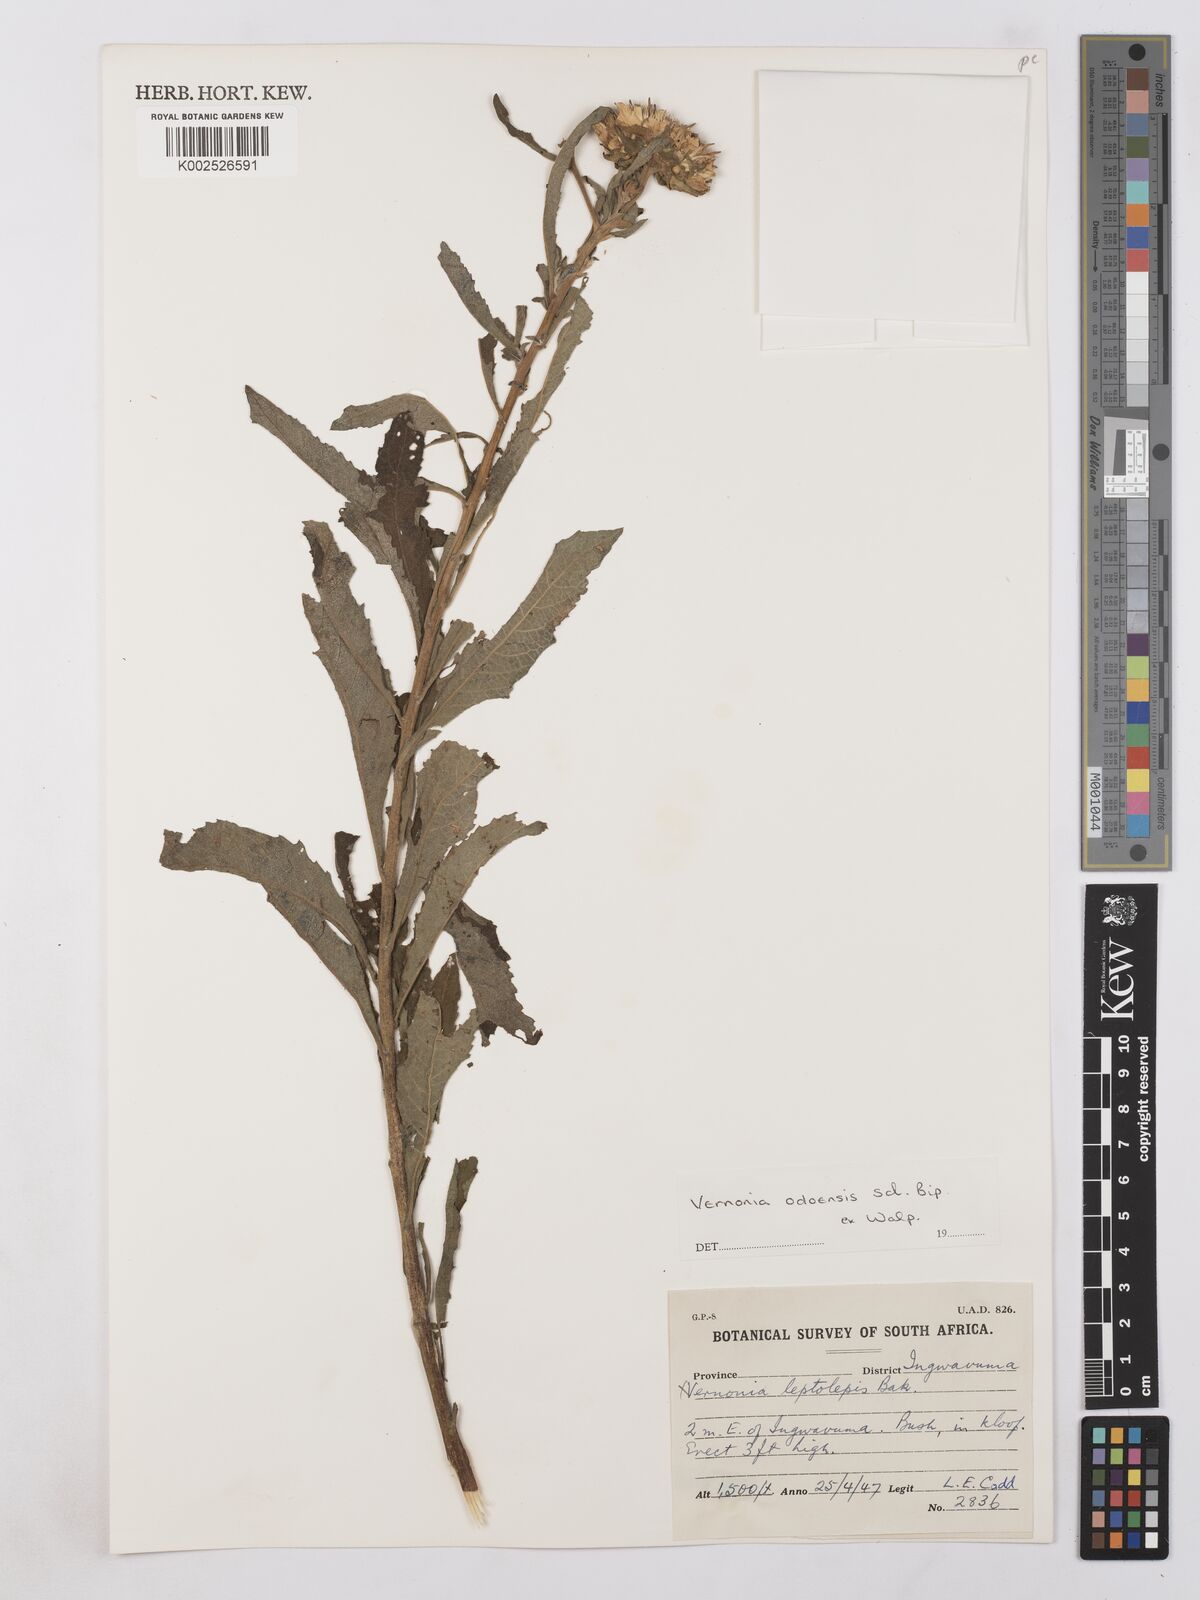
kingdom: Plantae
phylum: Tracheophyta
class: Magnoliopsida
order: Asterales
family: Asteraceae
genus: Baccharoides
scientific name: Baccharoides adoensis
